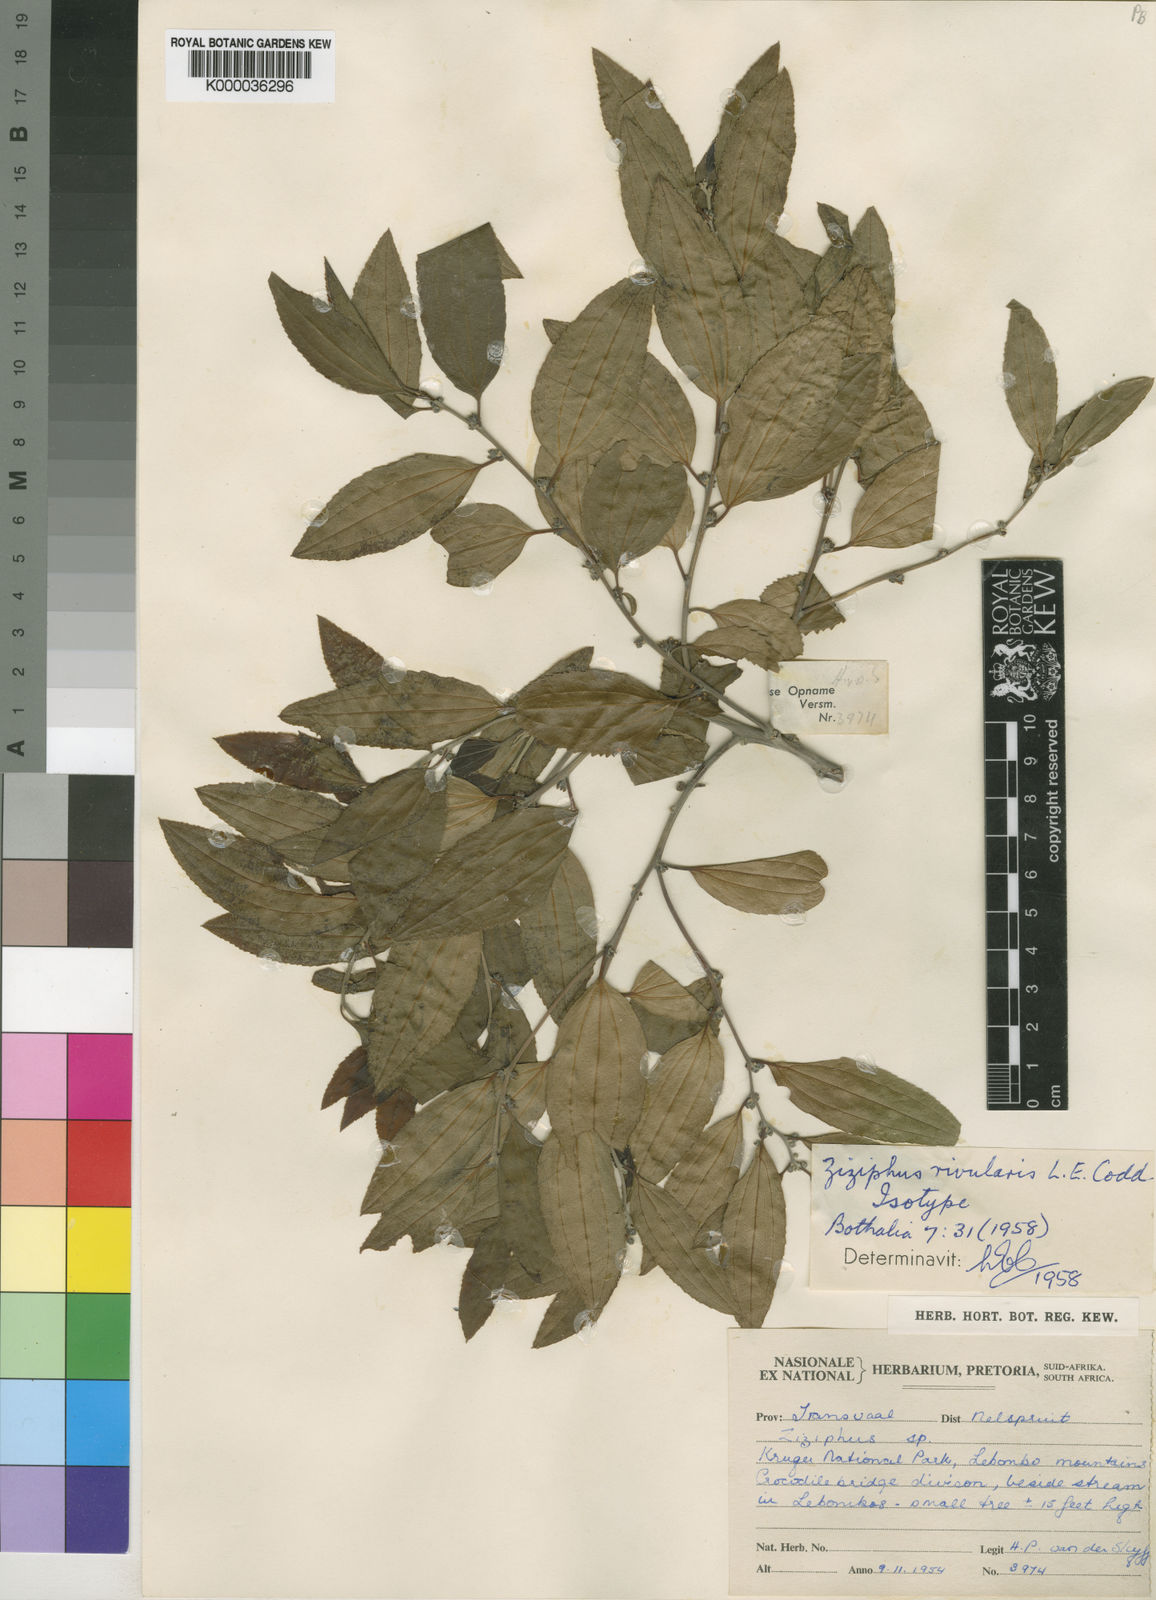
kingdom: Plantae
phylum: Tracheophyta
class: Magnoliopsida
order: Rosales
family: Rhamnaceae
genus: Ziziphus
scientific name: Ziziphus rivularis
